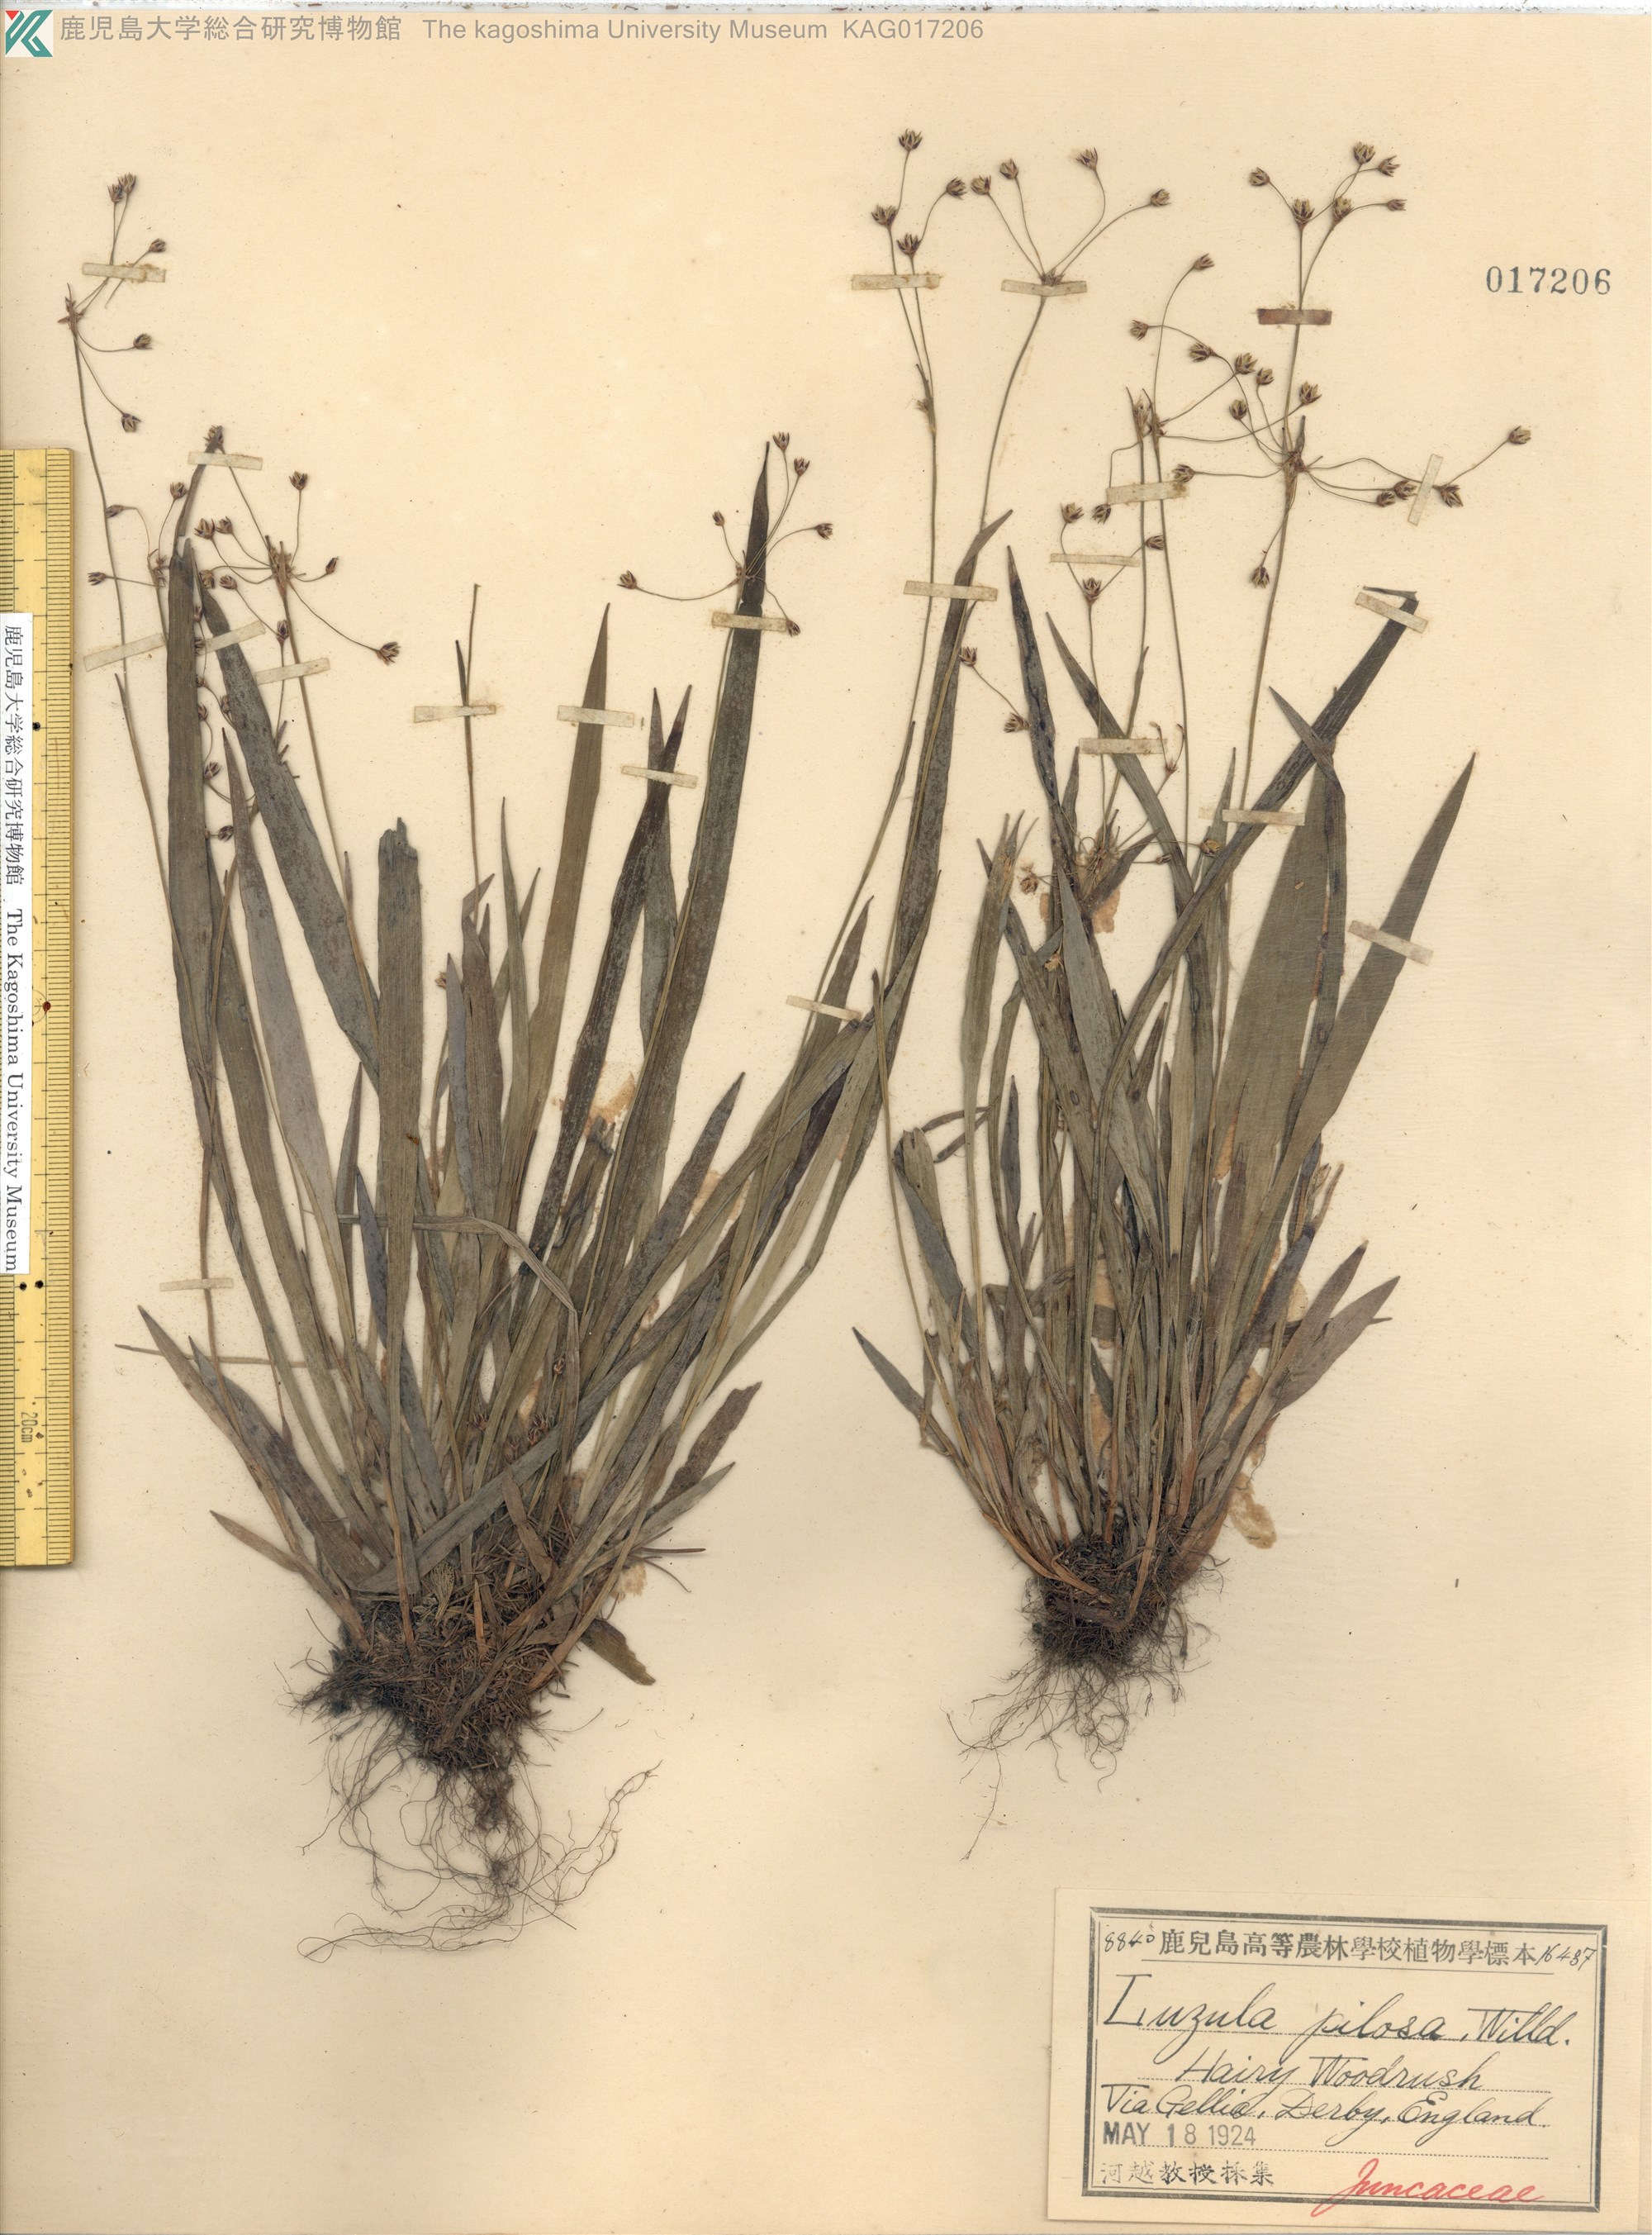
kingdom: Plantae
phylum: Tracheophyta
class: Liliopsida
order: Poales
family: Juncaceae
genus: Luzula
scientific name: Luzula pilosa
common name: Hairy wood-rush
